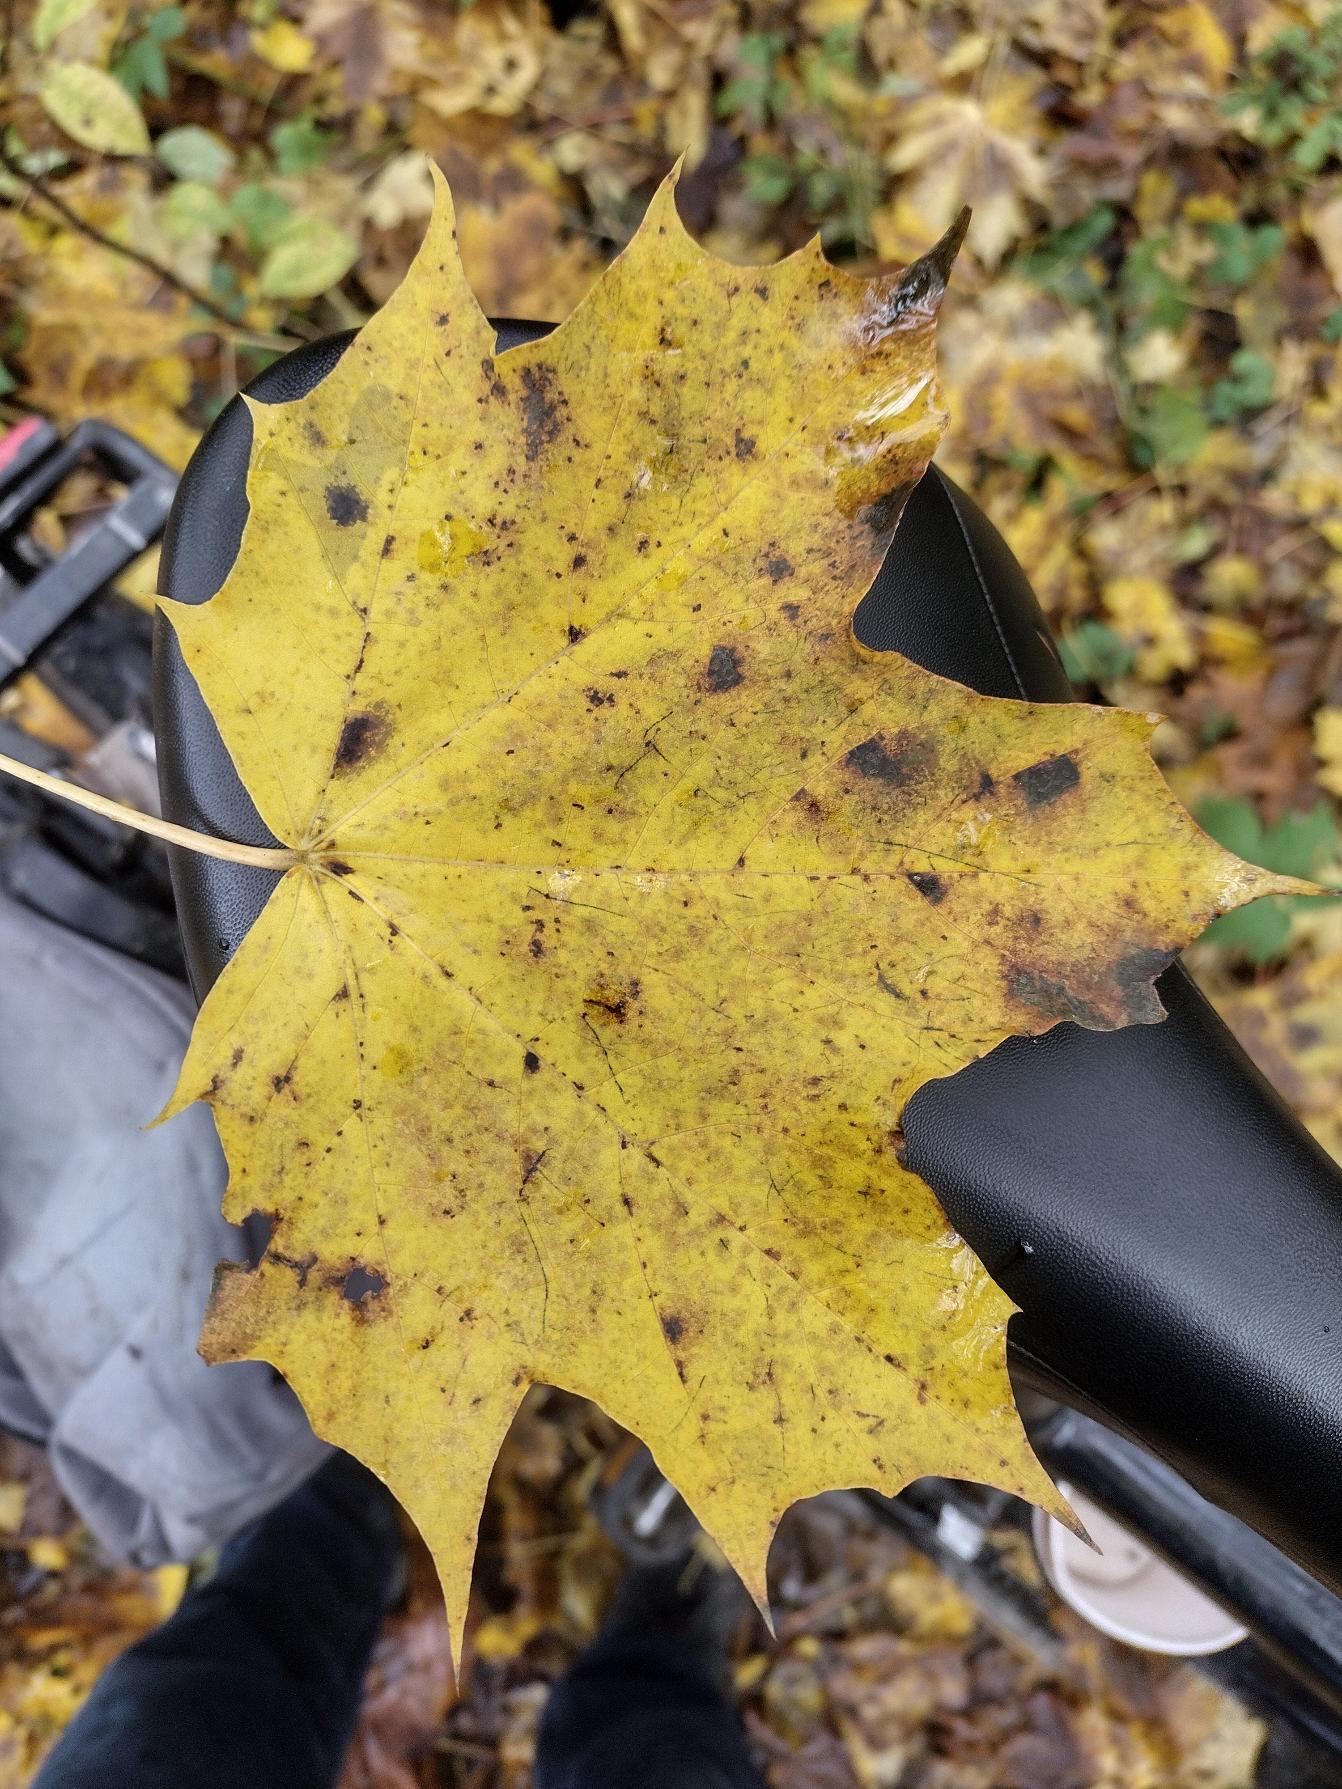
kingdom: Plantae
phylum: Tracheophyta
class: Magnoliopsida
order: Sapindales
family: Sapindaceae
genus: Acer
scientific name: Acer platanoides
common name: Spids-løn
